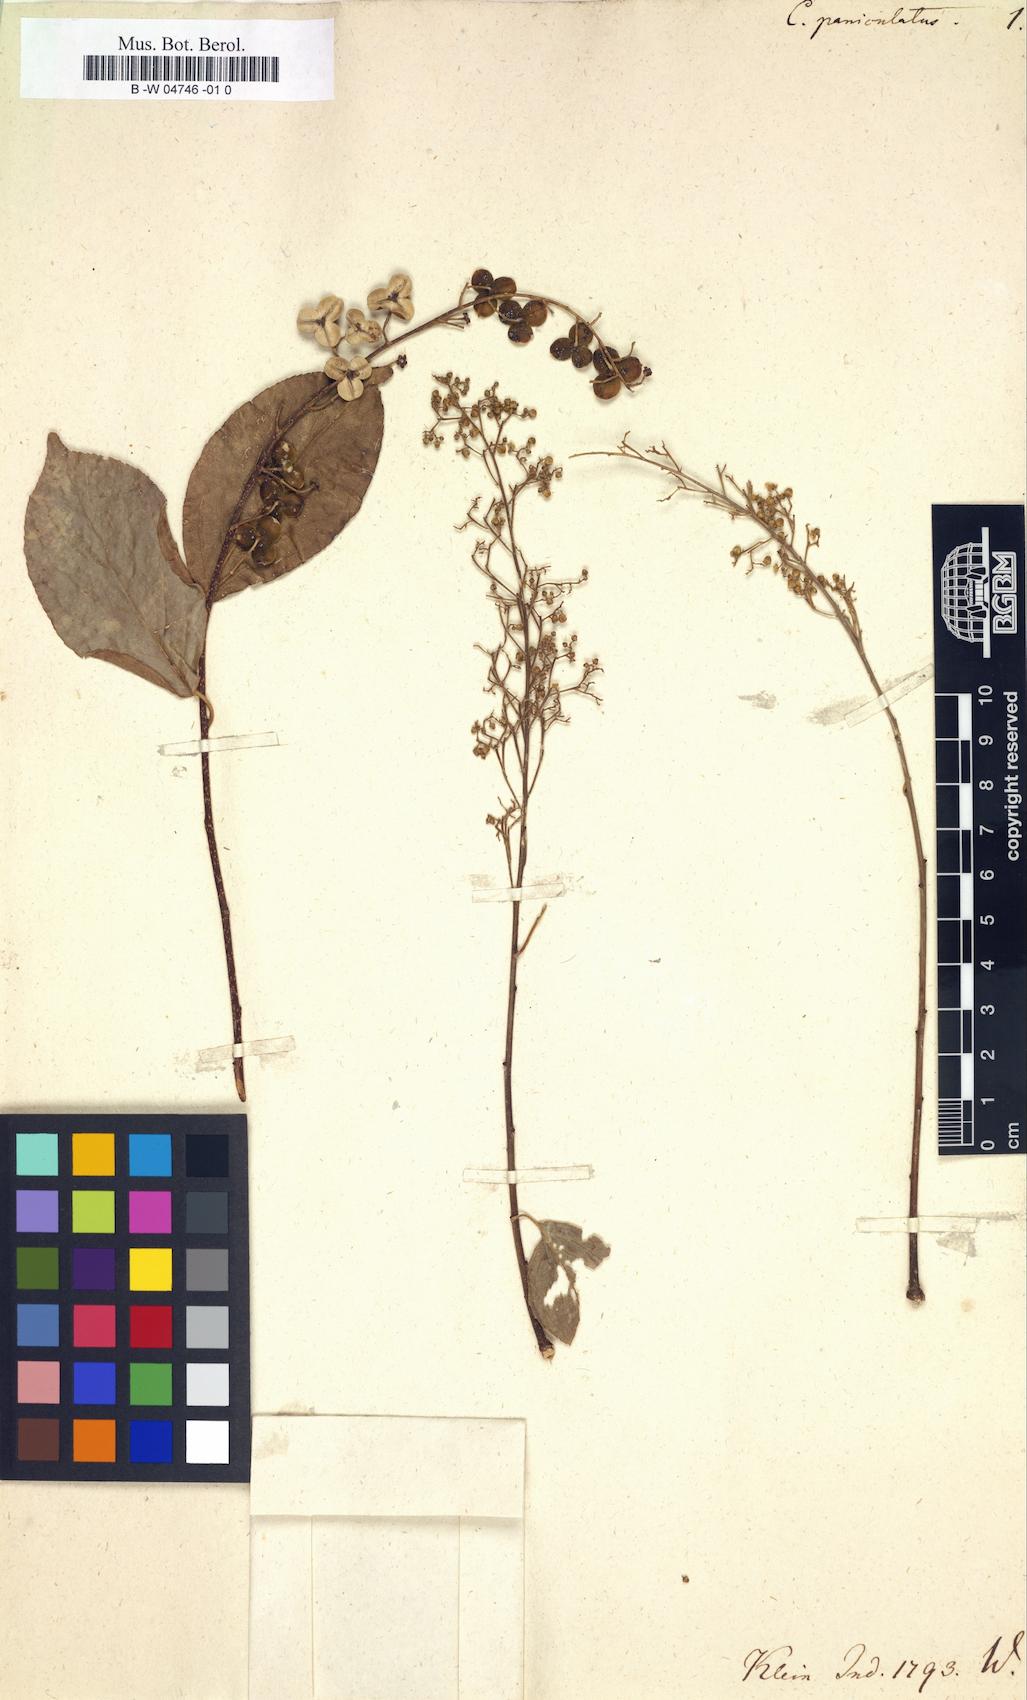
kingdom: Plantae
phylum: Tracheophyta
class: Magnoliopsida
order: Celastrales
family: Celastraceae
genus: Celastrus
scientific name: Celastrus paniculatus
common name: Oriental bittersweet; staff vine
